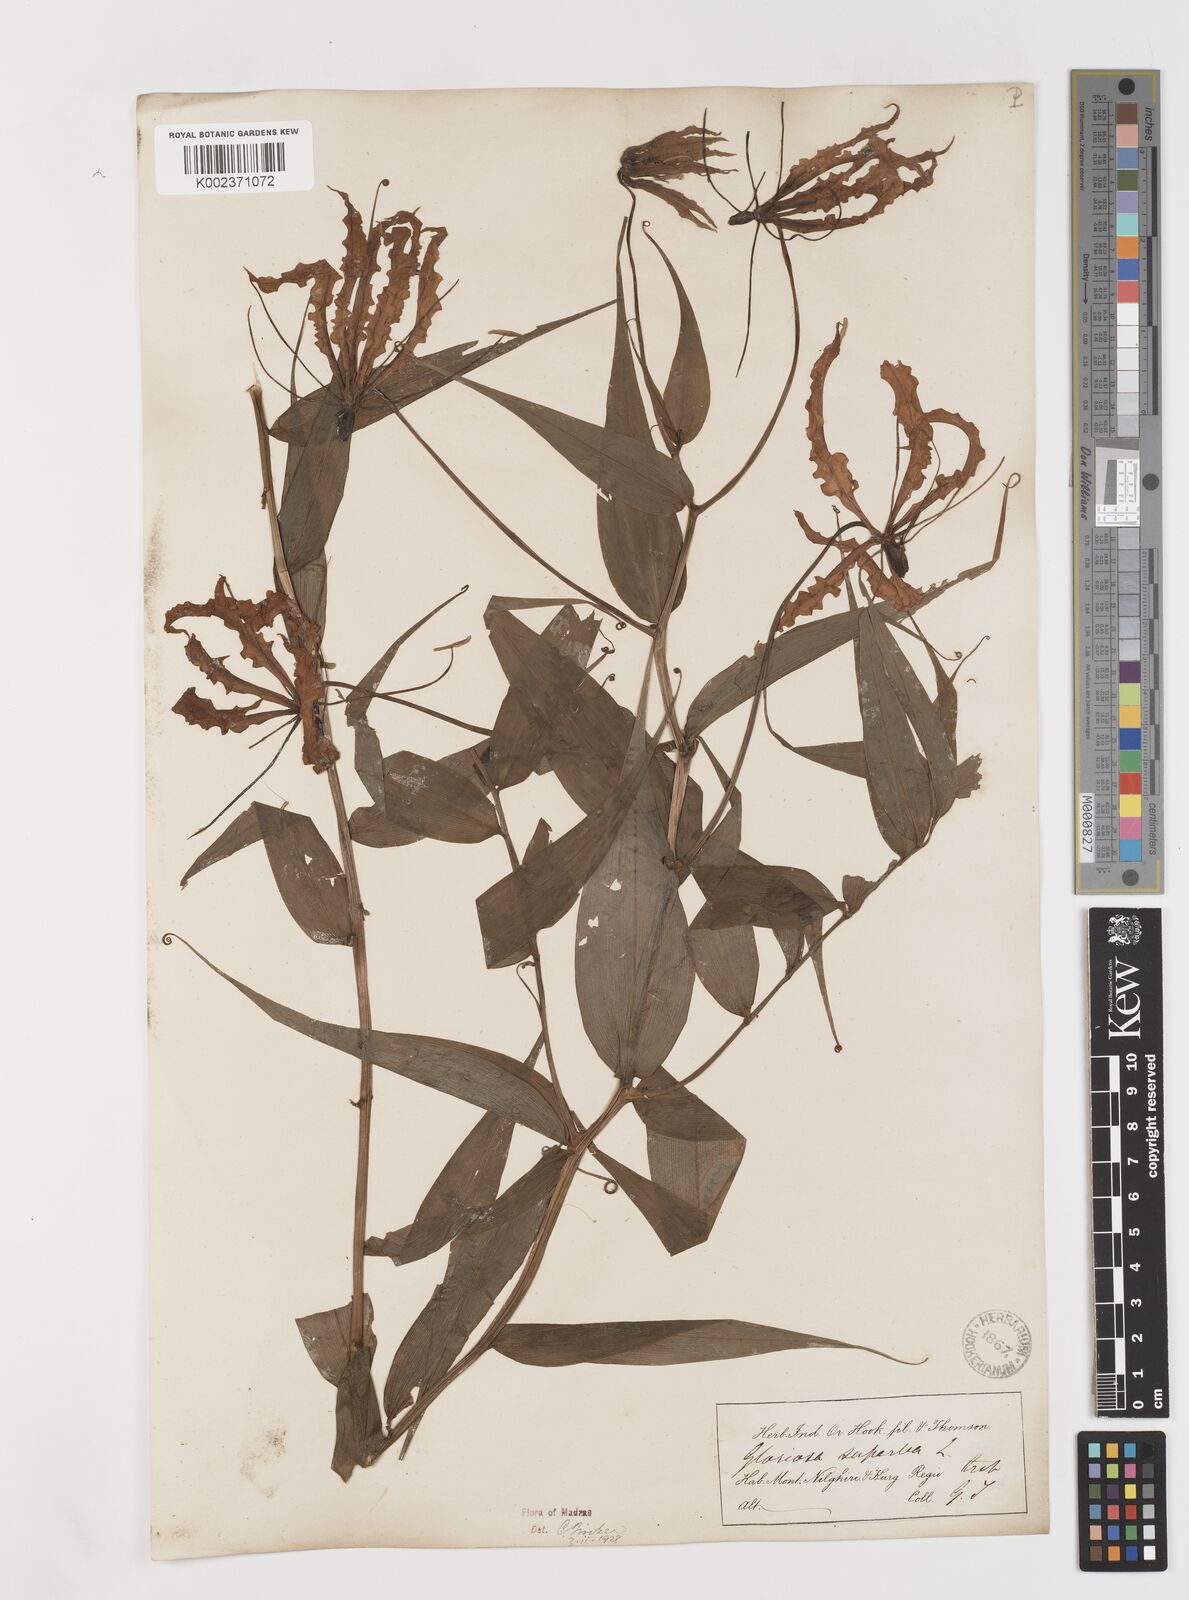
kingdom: Plantae
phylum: Tracheophyta
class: Liliopsida
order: Liliales
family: Colchicaceae
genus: Gloriosa
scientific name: Gloriosa superba
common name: Flame lily
